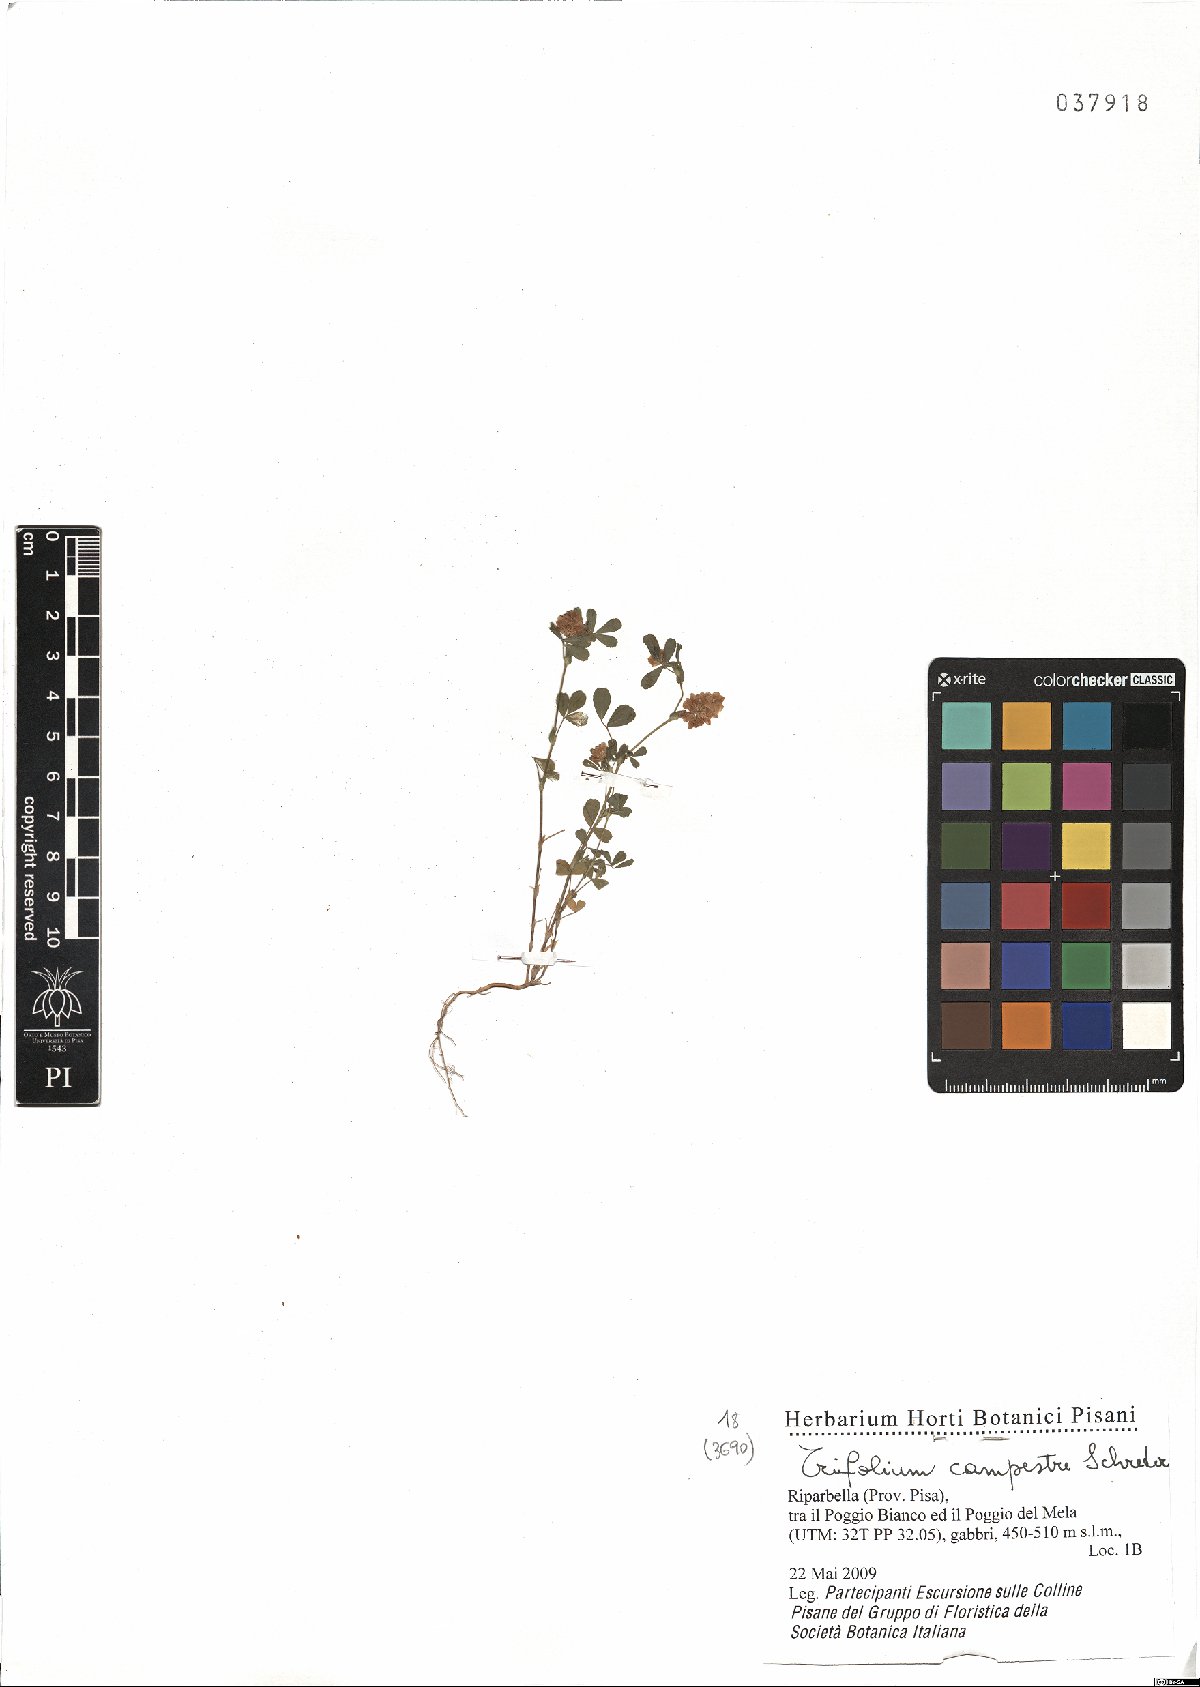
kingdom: Plantae
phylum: Tracheophyta
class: Magnoliopsida
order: Fabales
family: Fabaceae
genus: Trifolium
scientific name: Trifolium campestre
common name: Field clover
